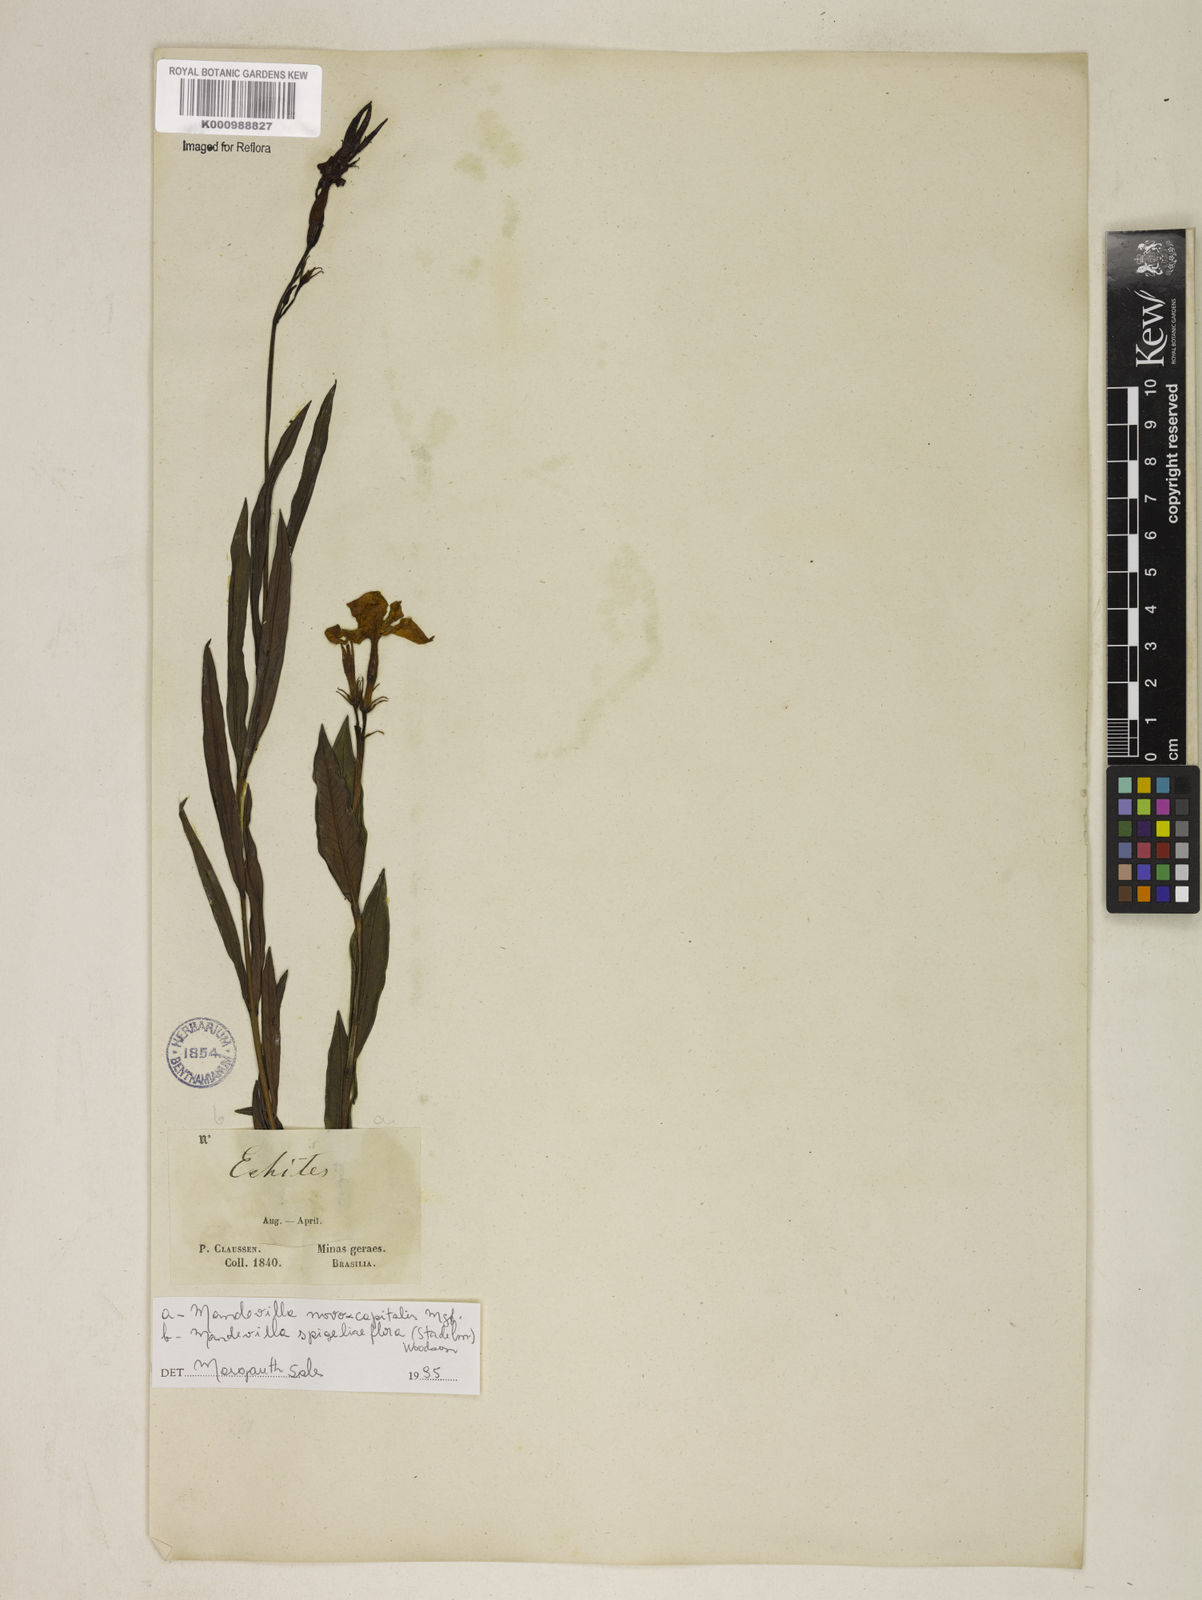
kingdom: Plantae
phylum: Tracheophyta
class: Magnoliopsida
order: Gentianales
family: Apocynaceae
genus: Mandevilla
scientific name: Mandevilla spigeliiflora
